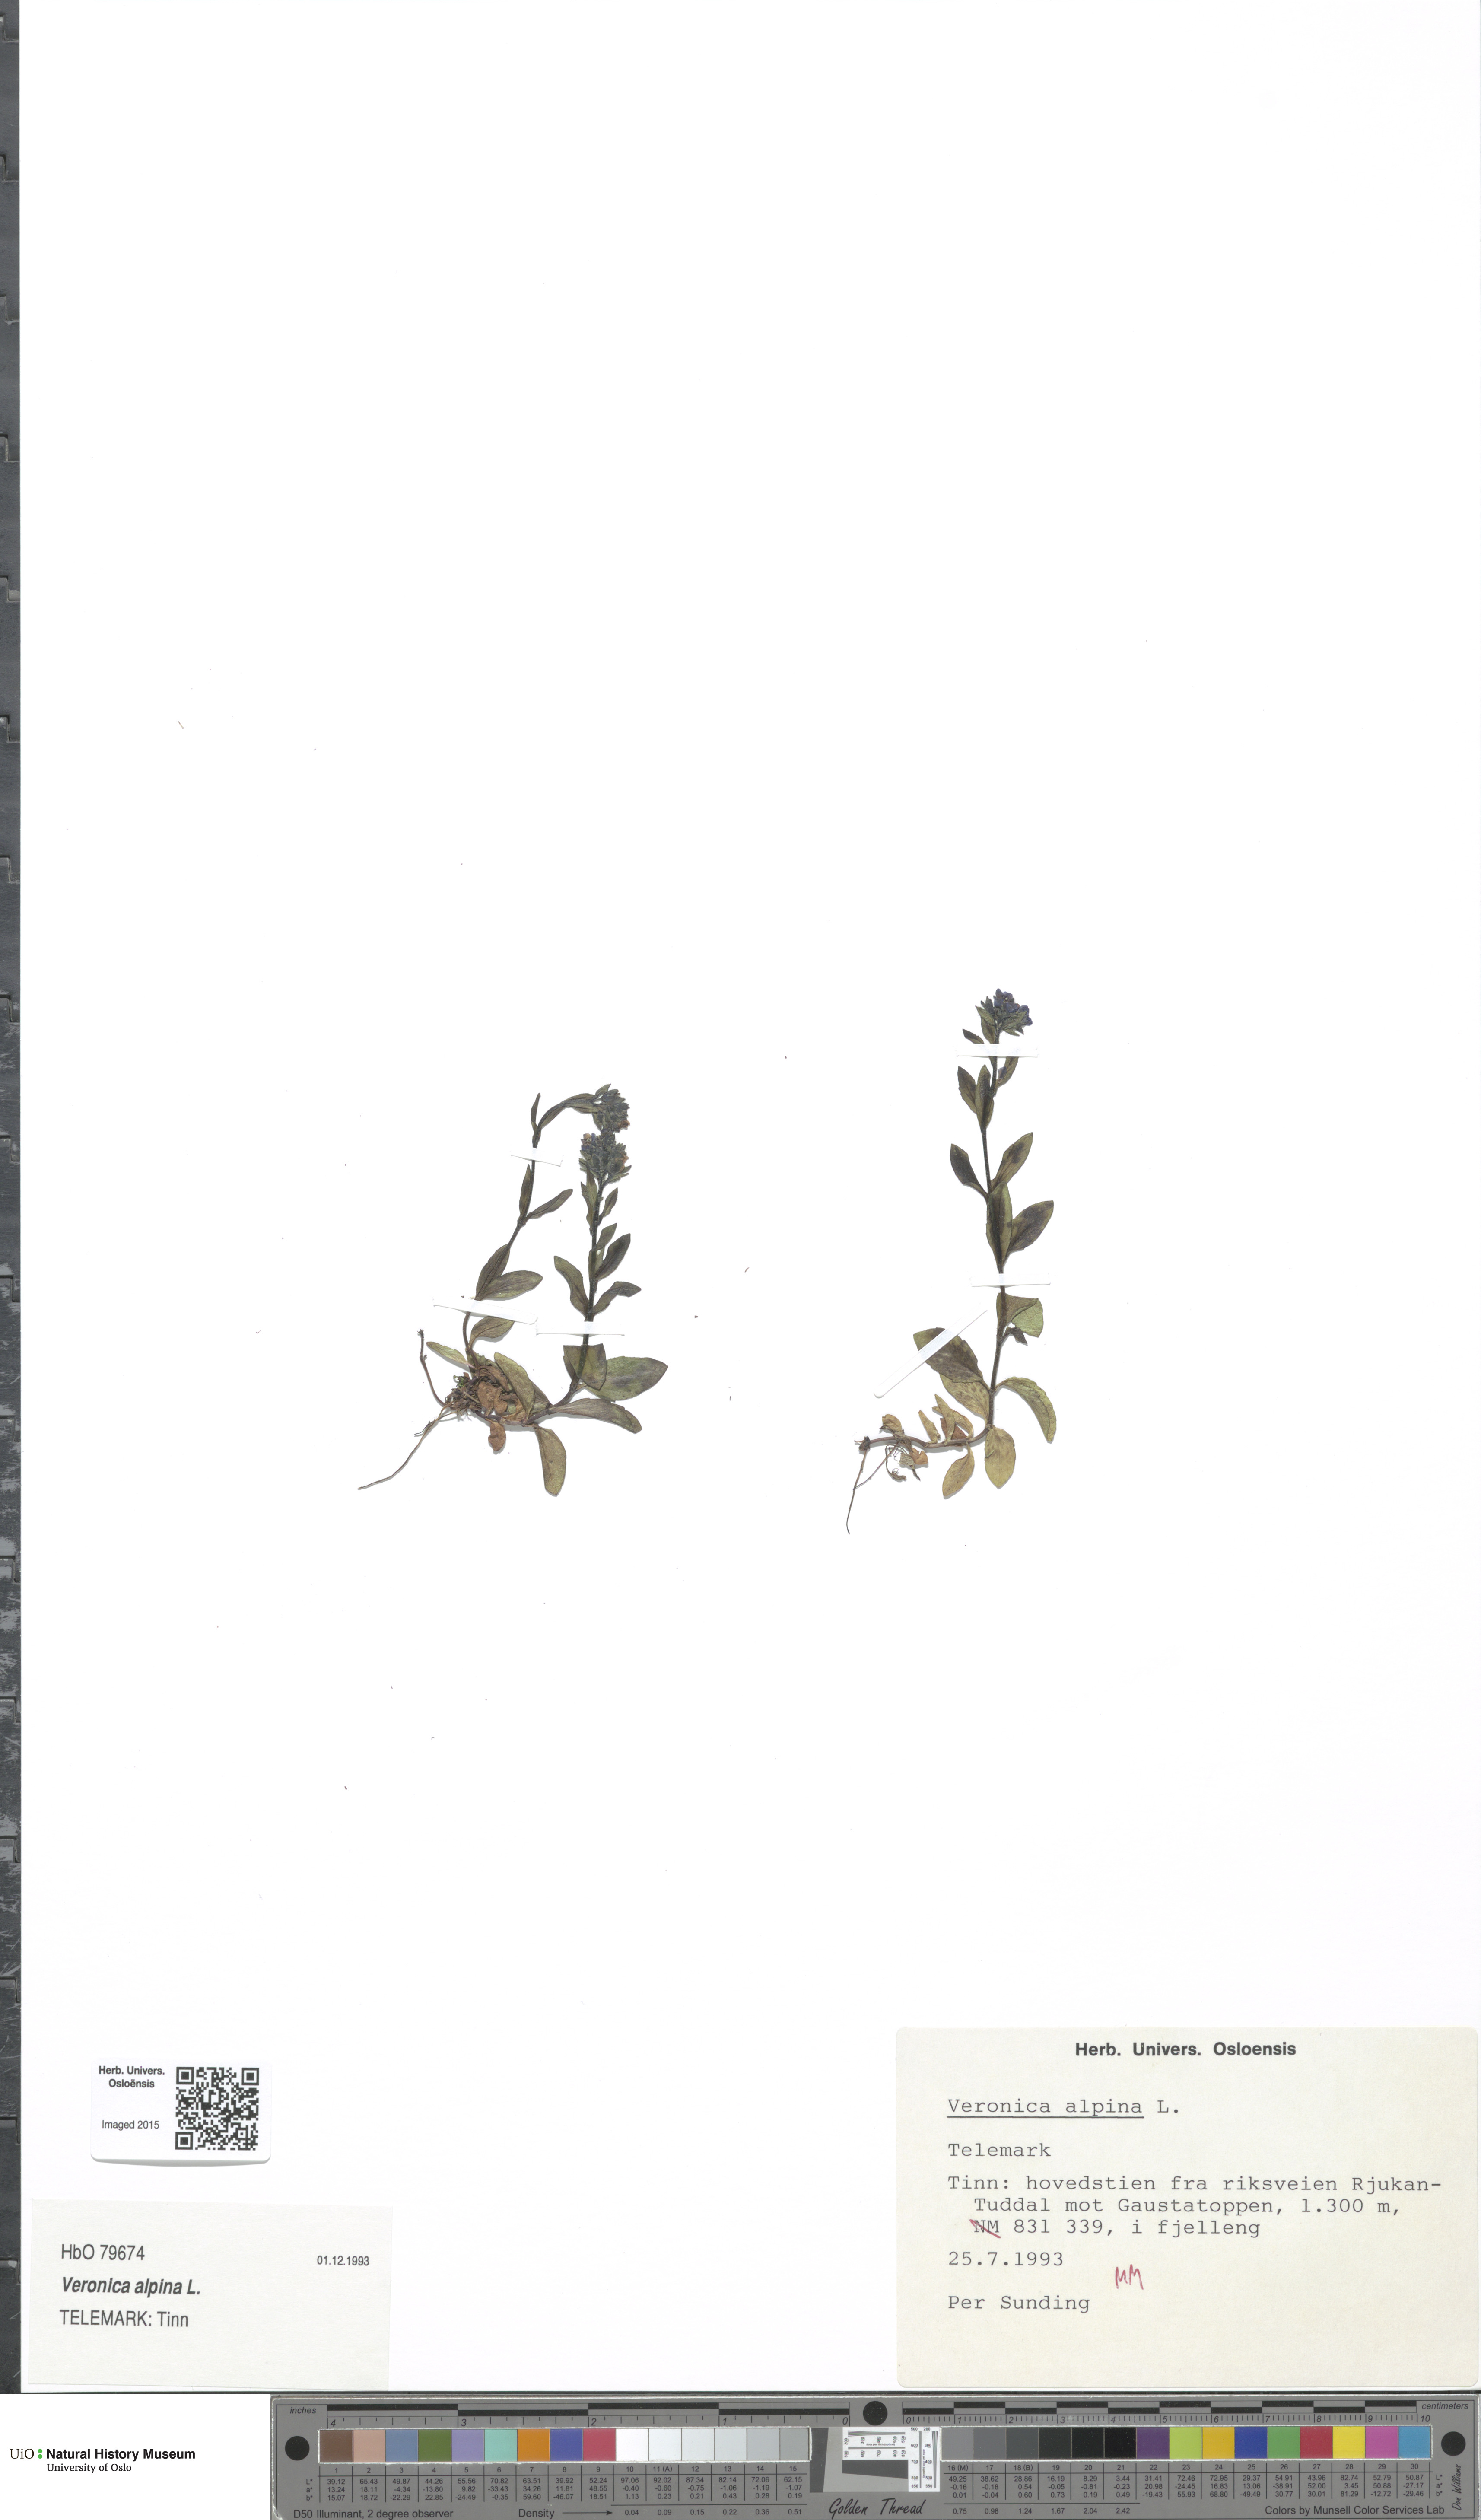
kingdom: Plantae
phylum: Tracheophyta
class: Magnoliopsida
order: Lamiales
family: Plantaginaceae
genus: Veronica
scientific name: Veronica alpina
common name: Alpine speedwell
